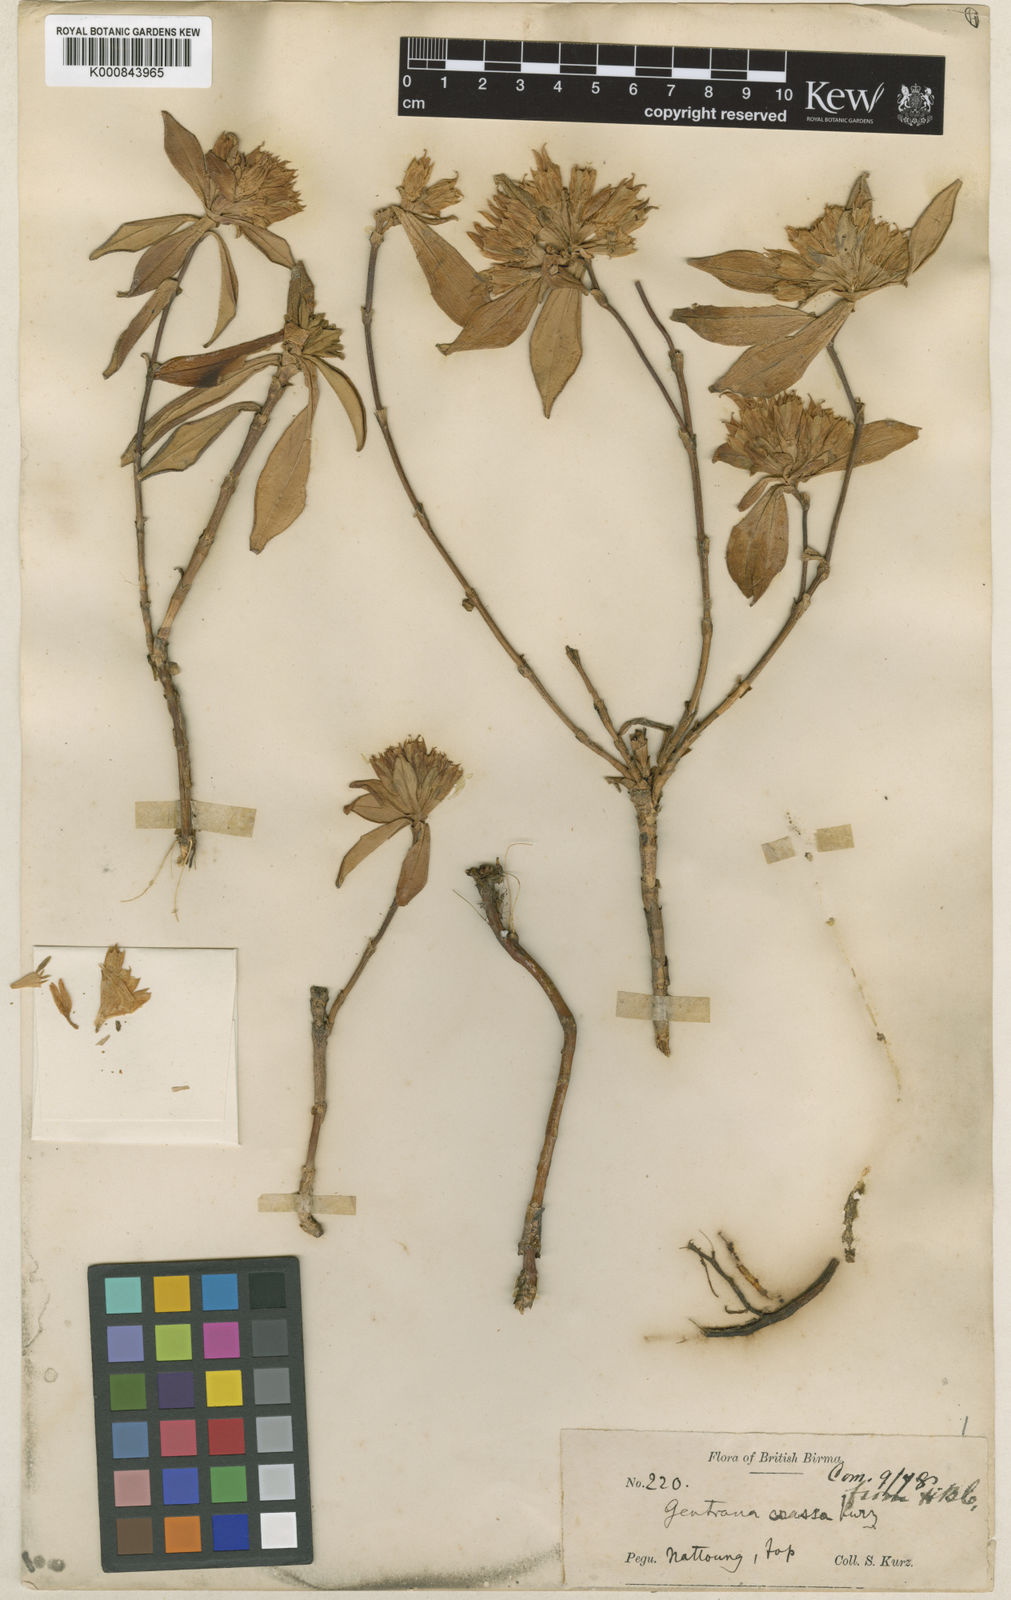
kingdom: Plantae
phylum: Tracheophyta
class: Magnoliopsida
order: Gentianales
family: Gentianaceae
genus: Gentiana
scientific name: Gentiana crassa
